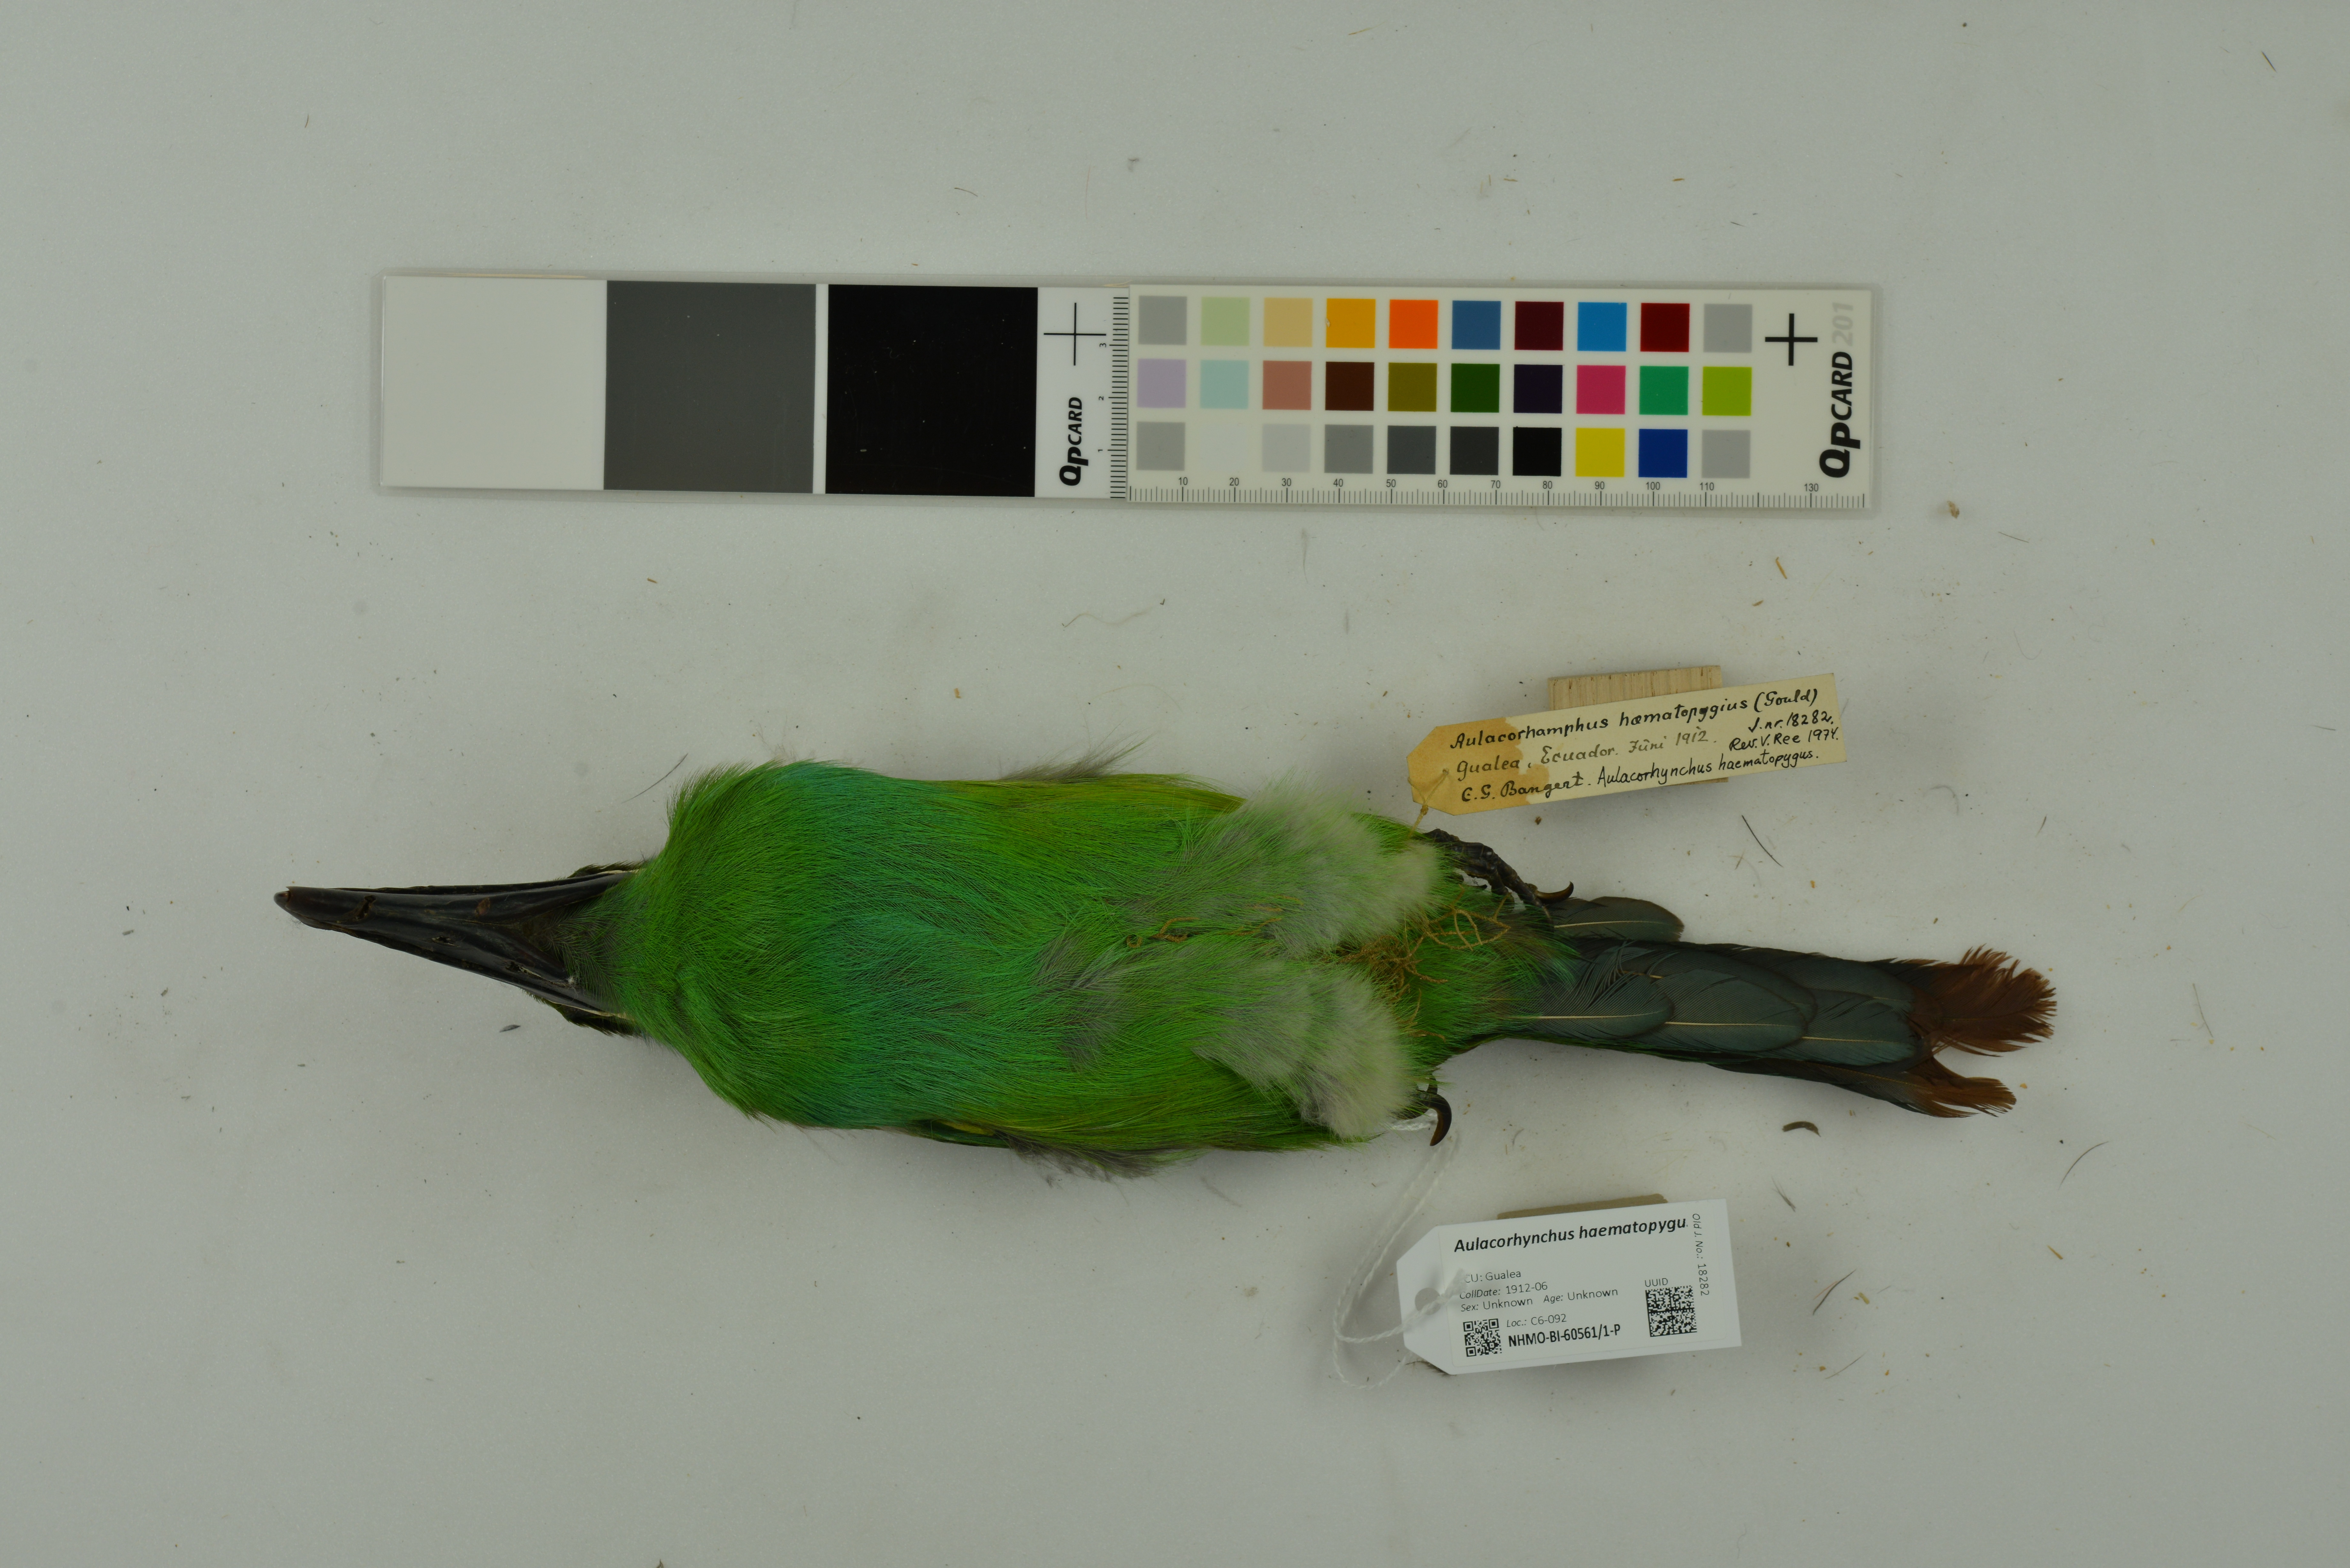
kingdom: Animalia
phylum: Chordata
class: Aves
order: Piciformes
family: Ramphastidae
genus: Aulacorhynchus
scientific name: Aulacorhynchus haematopygus
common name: Crimson-rumped toucanet
